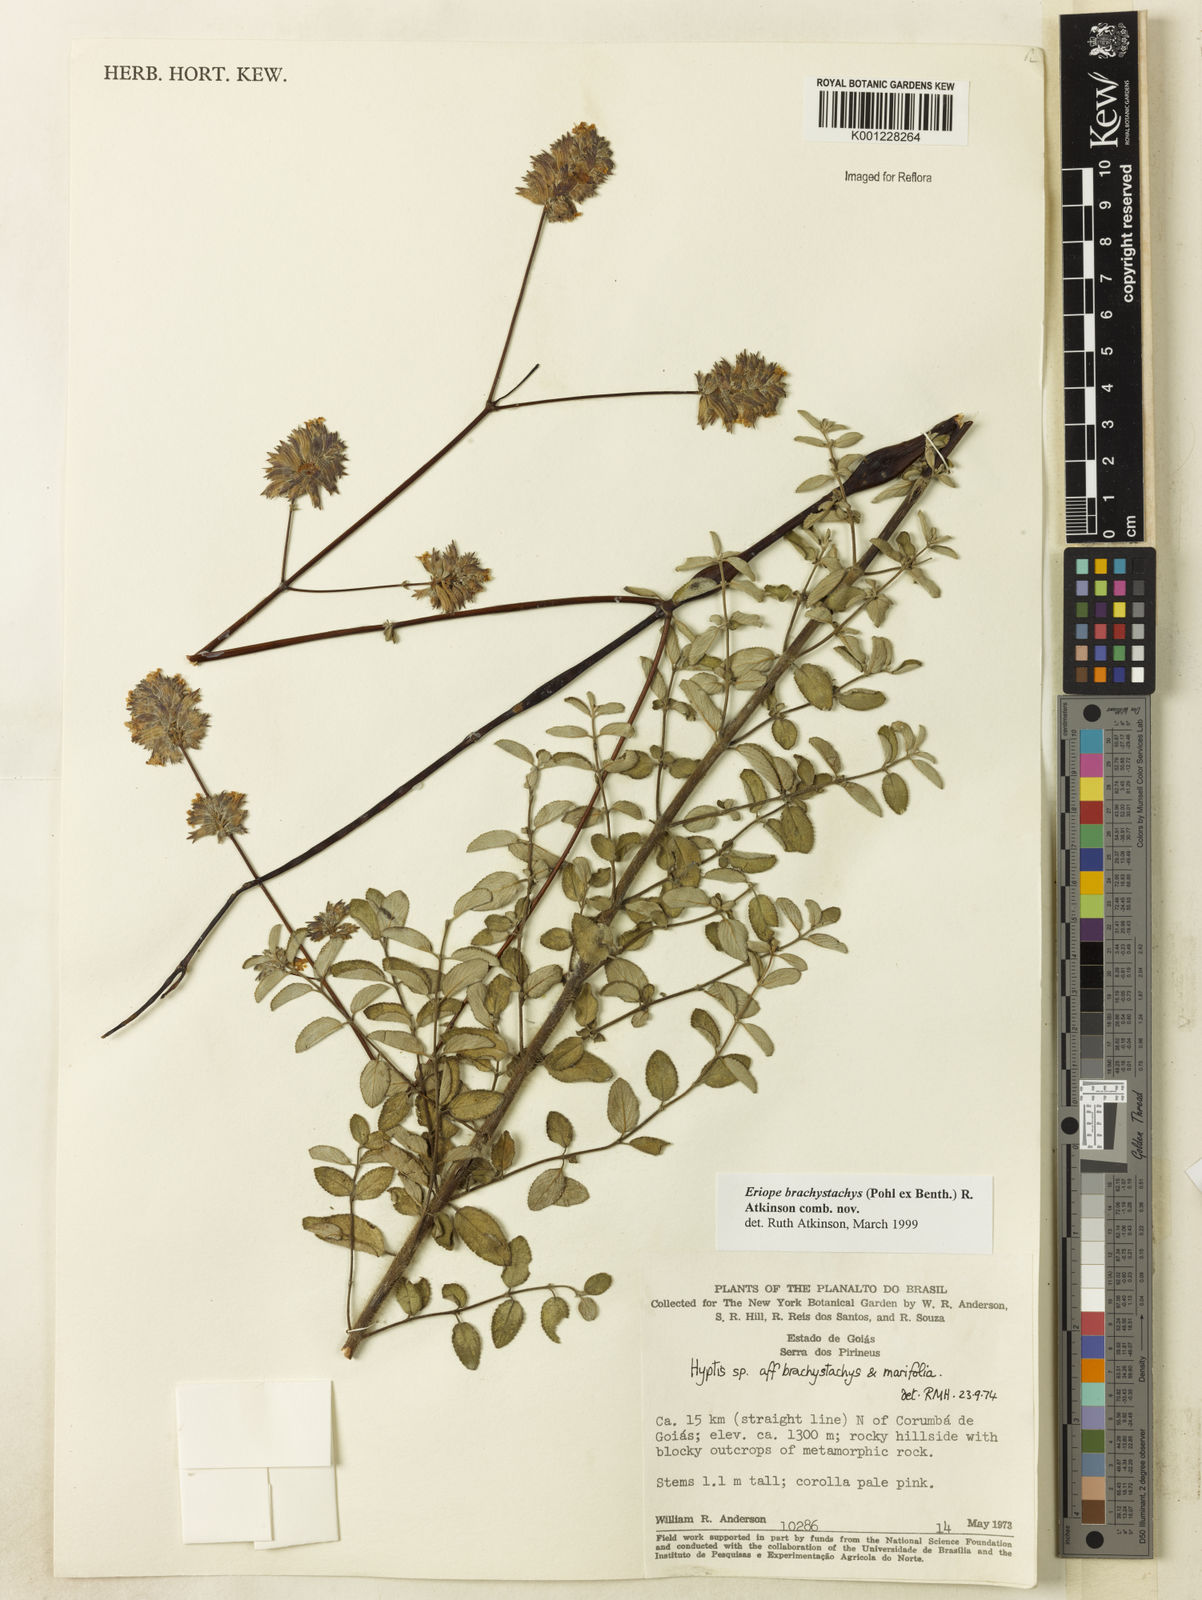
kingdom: Plantae
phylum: Tracheophyta
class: Magnoliopsida
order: Lamiales
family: Lamiaceae
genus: Hypenia
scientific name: Hypenia brachystachys
